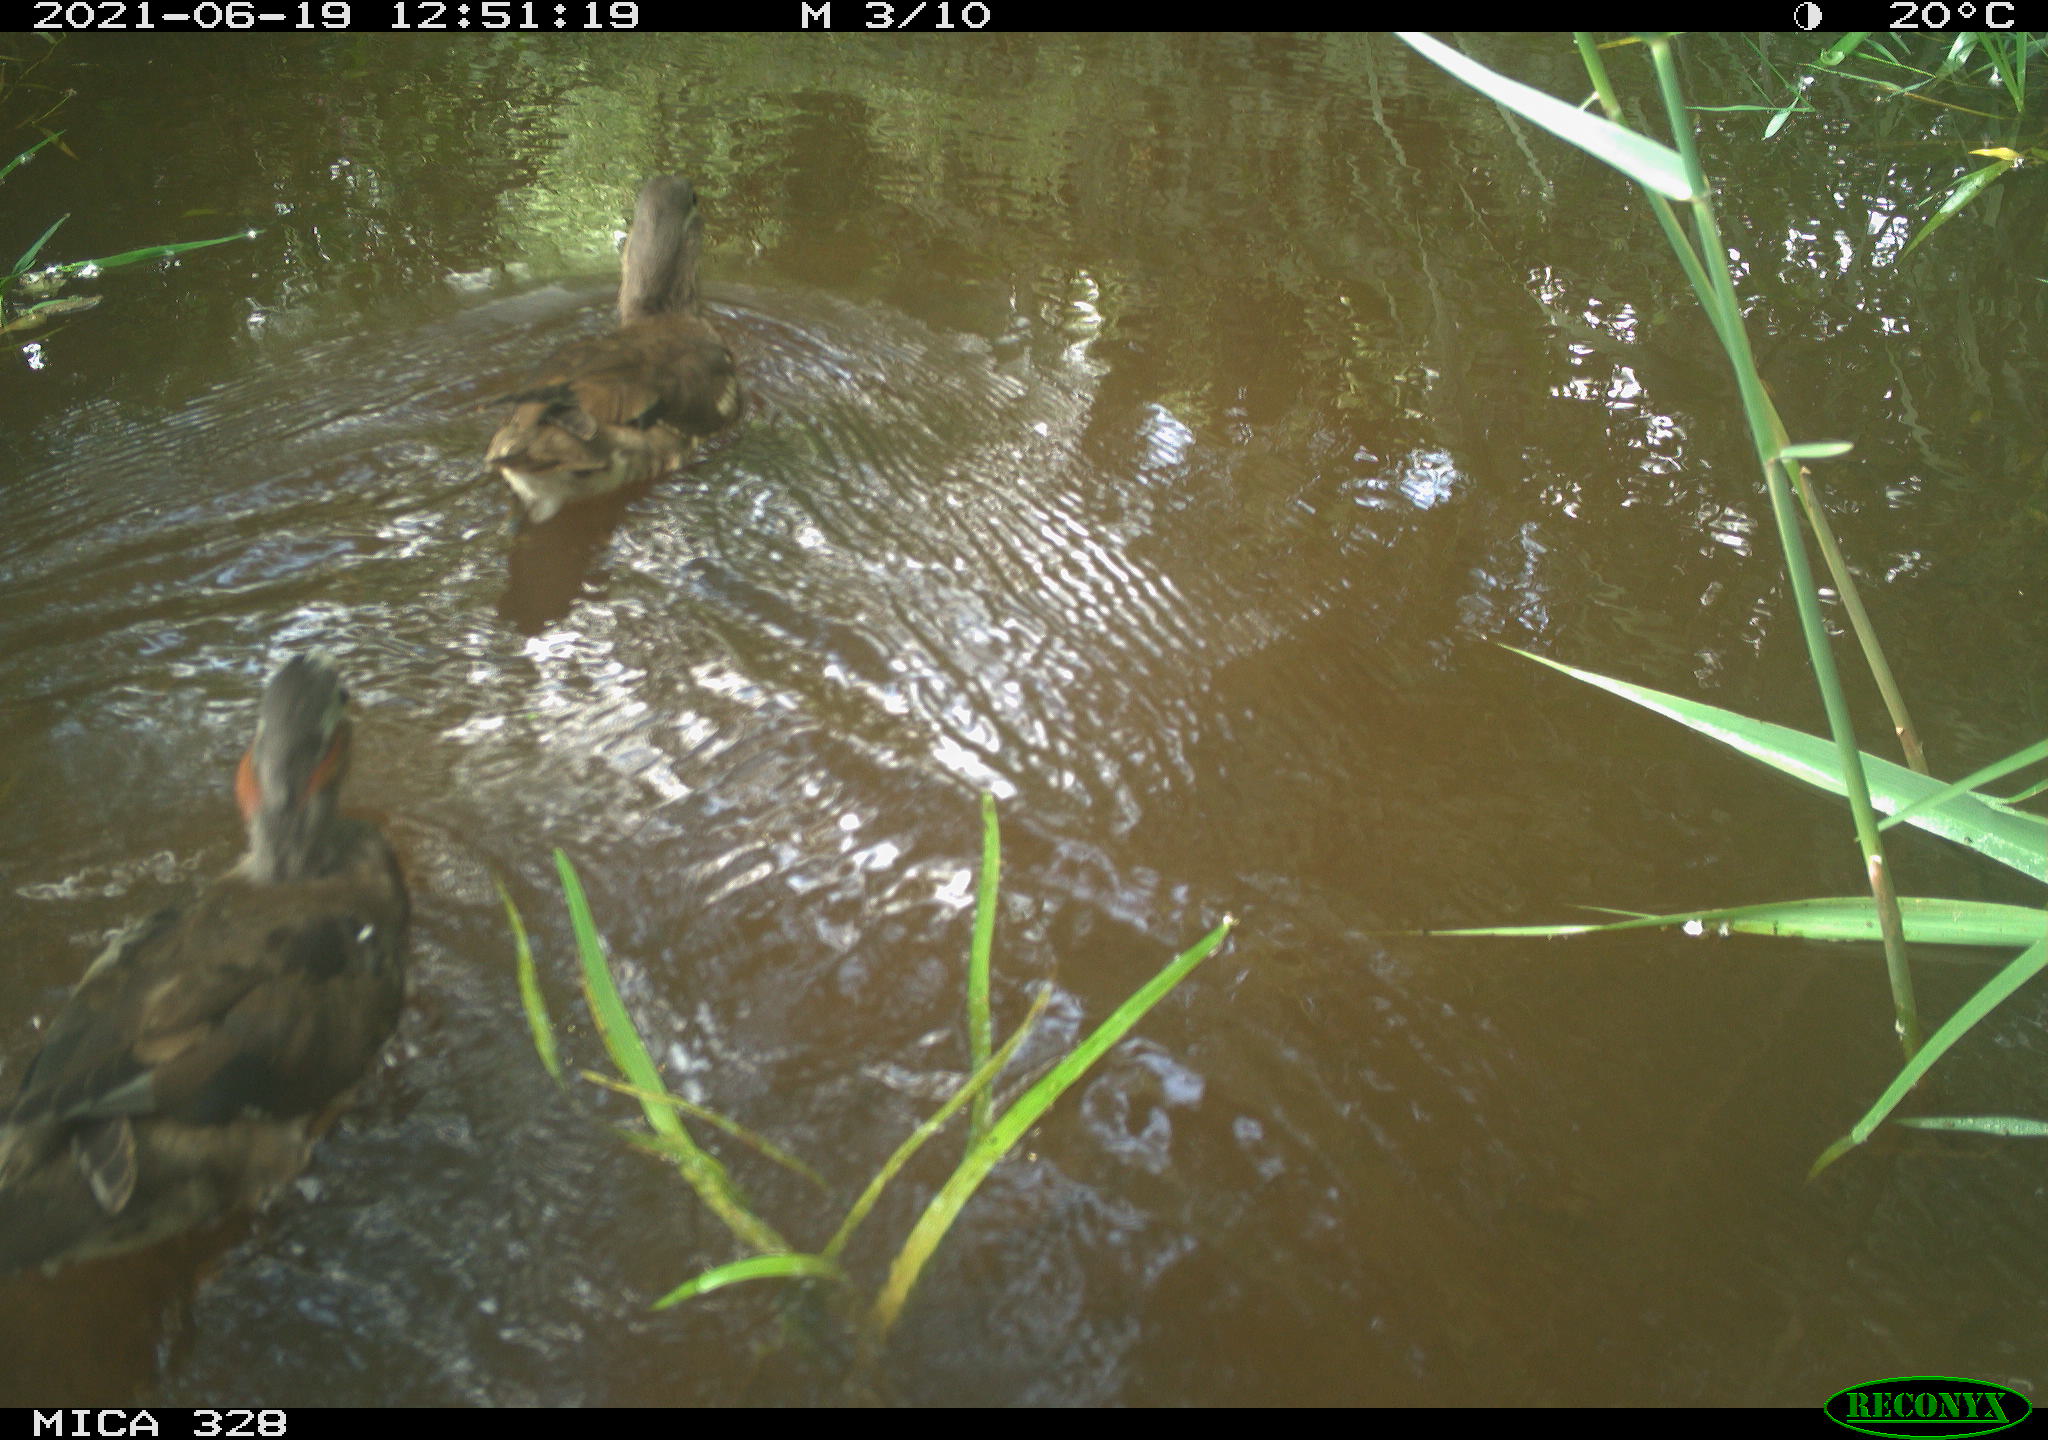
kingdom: Animalia
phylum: Chordata
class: Aves
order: Anseriformes
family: Anatidae
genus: Aix
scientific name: Aix galericulata
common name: Mandarin duck
